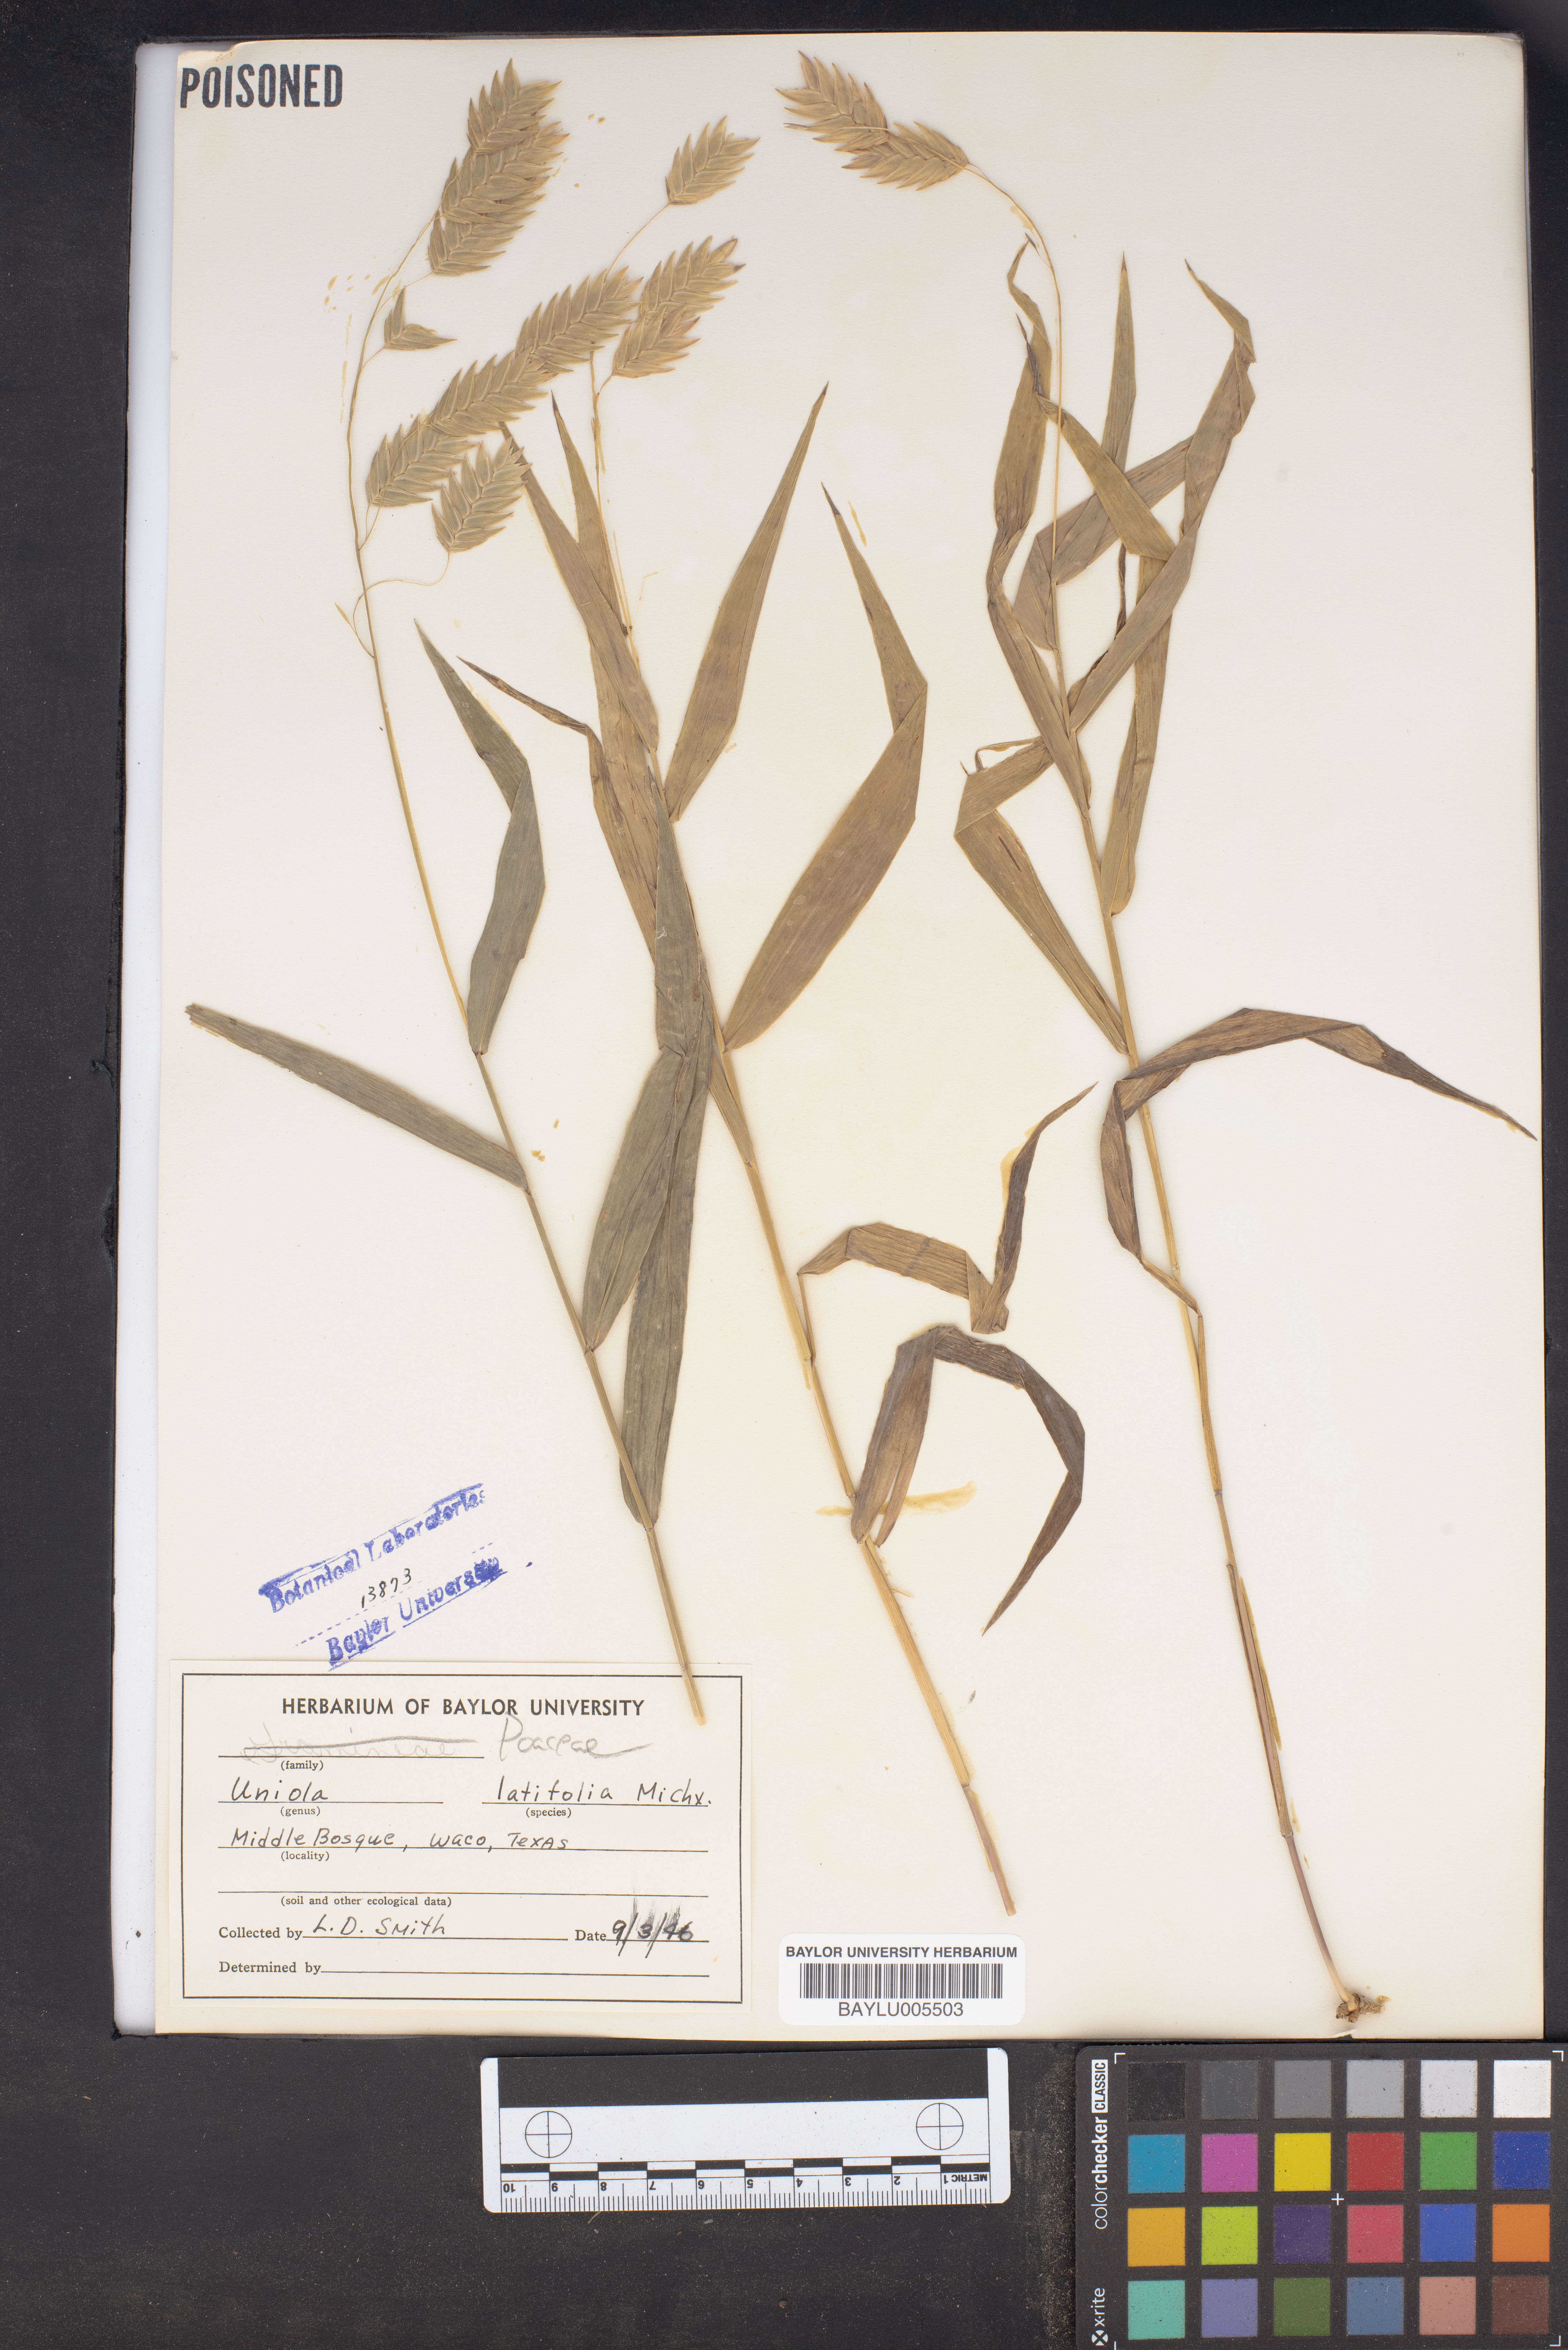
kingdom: Plantae
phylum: Tracheophyta
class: Liliopsida
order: Poales
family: Poaceae
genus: Chasmanthium
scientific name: Chasmanthium latifolium
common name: Broad-leaved chasmanthium
